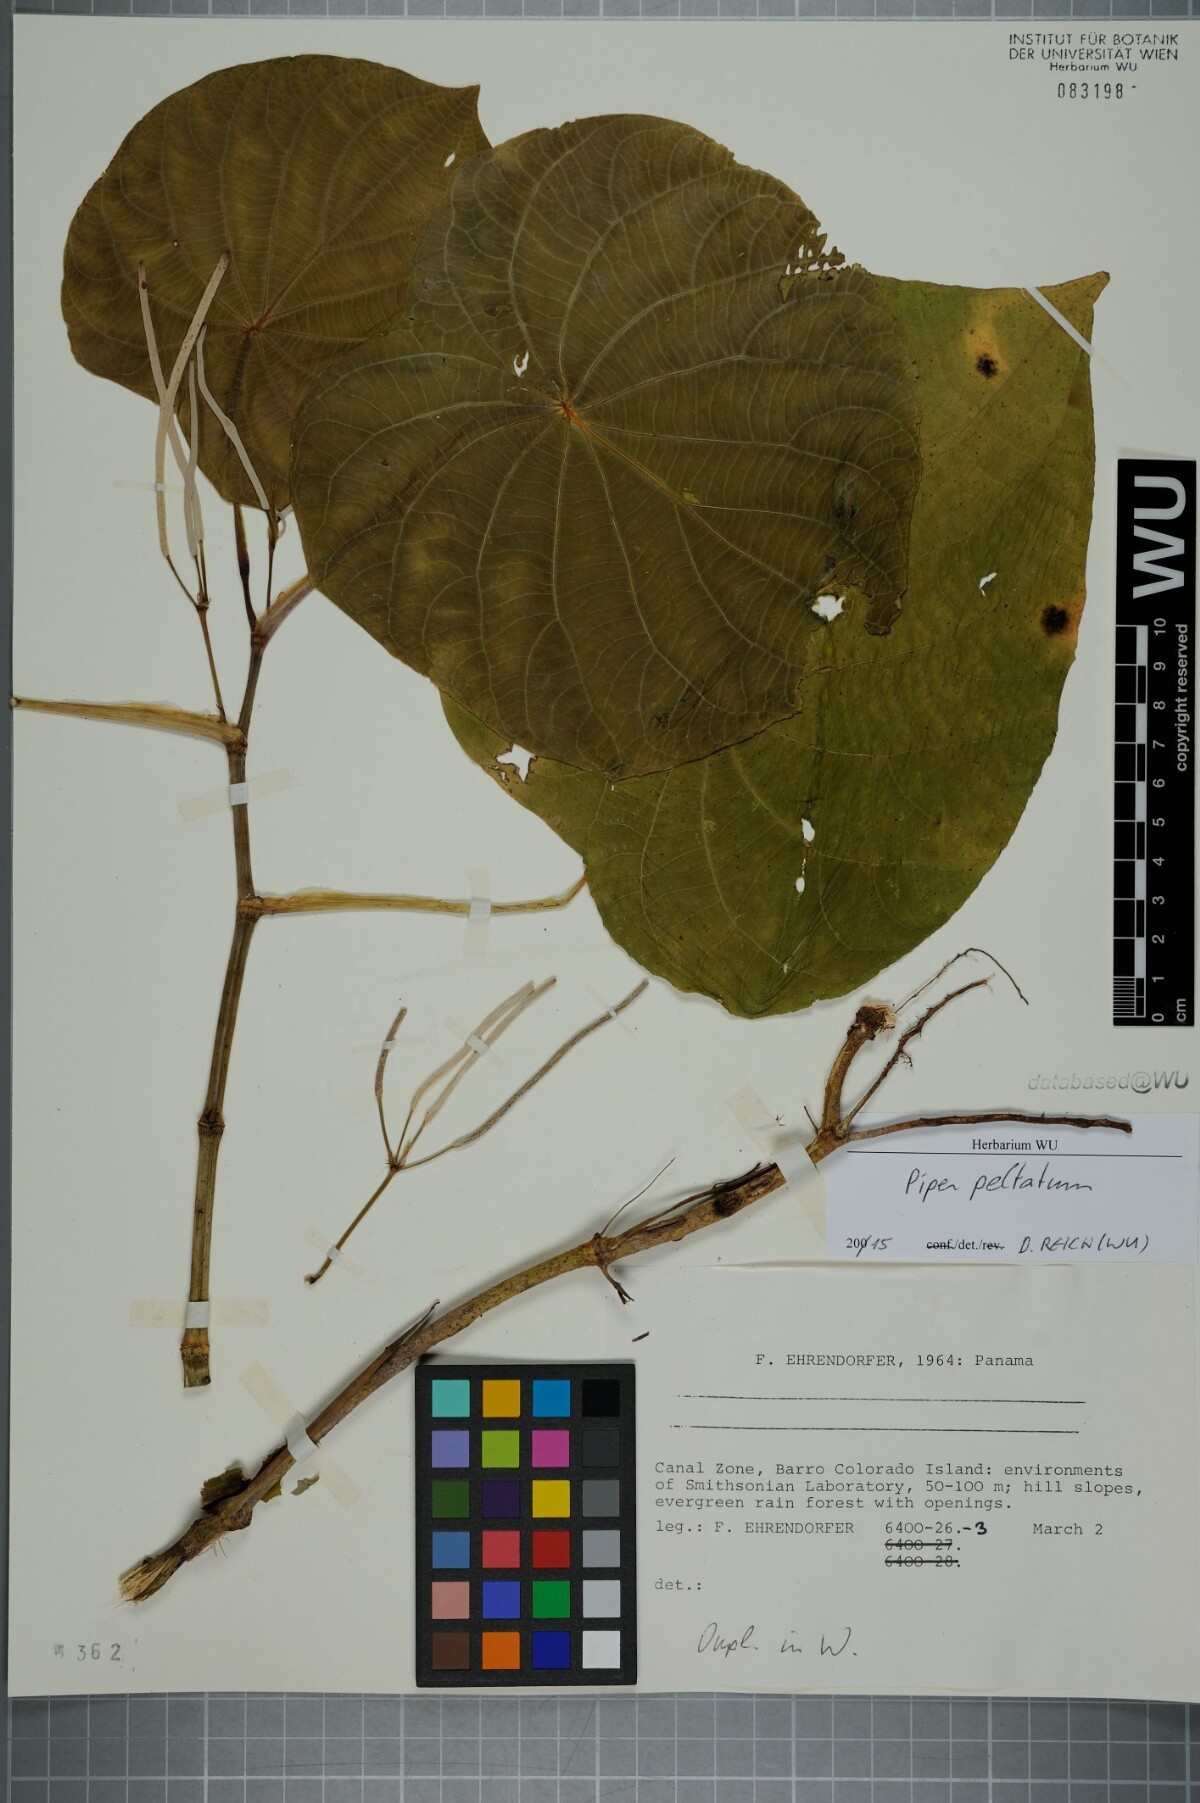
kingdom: Plantae
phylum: Tracheophyta
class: Magnoliopsida
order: Piperales
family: Piperaceae
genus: Piper
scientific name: Piper peltatum
